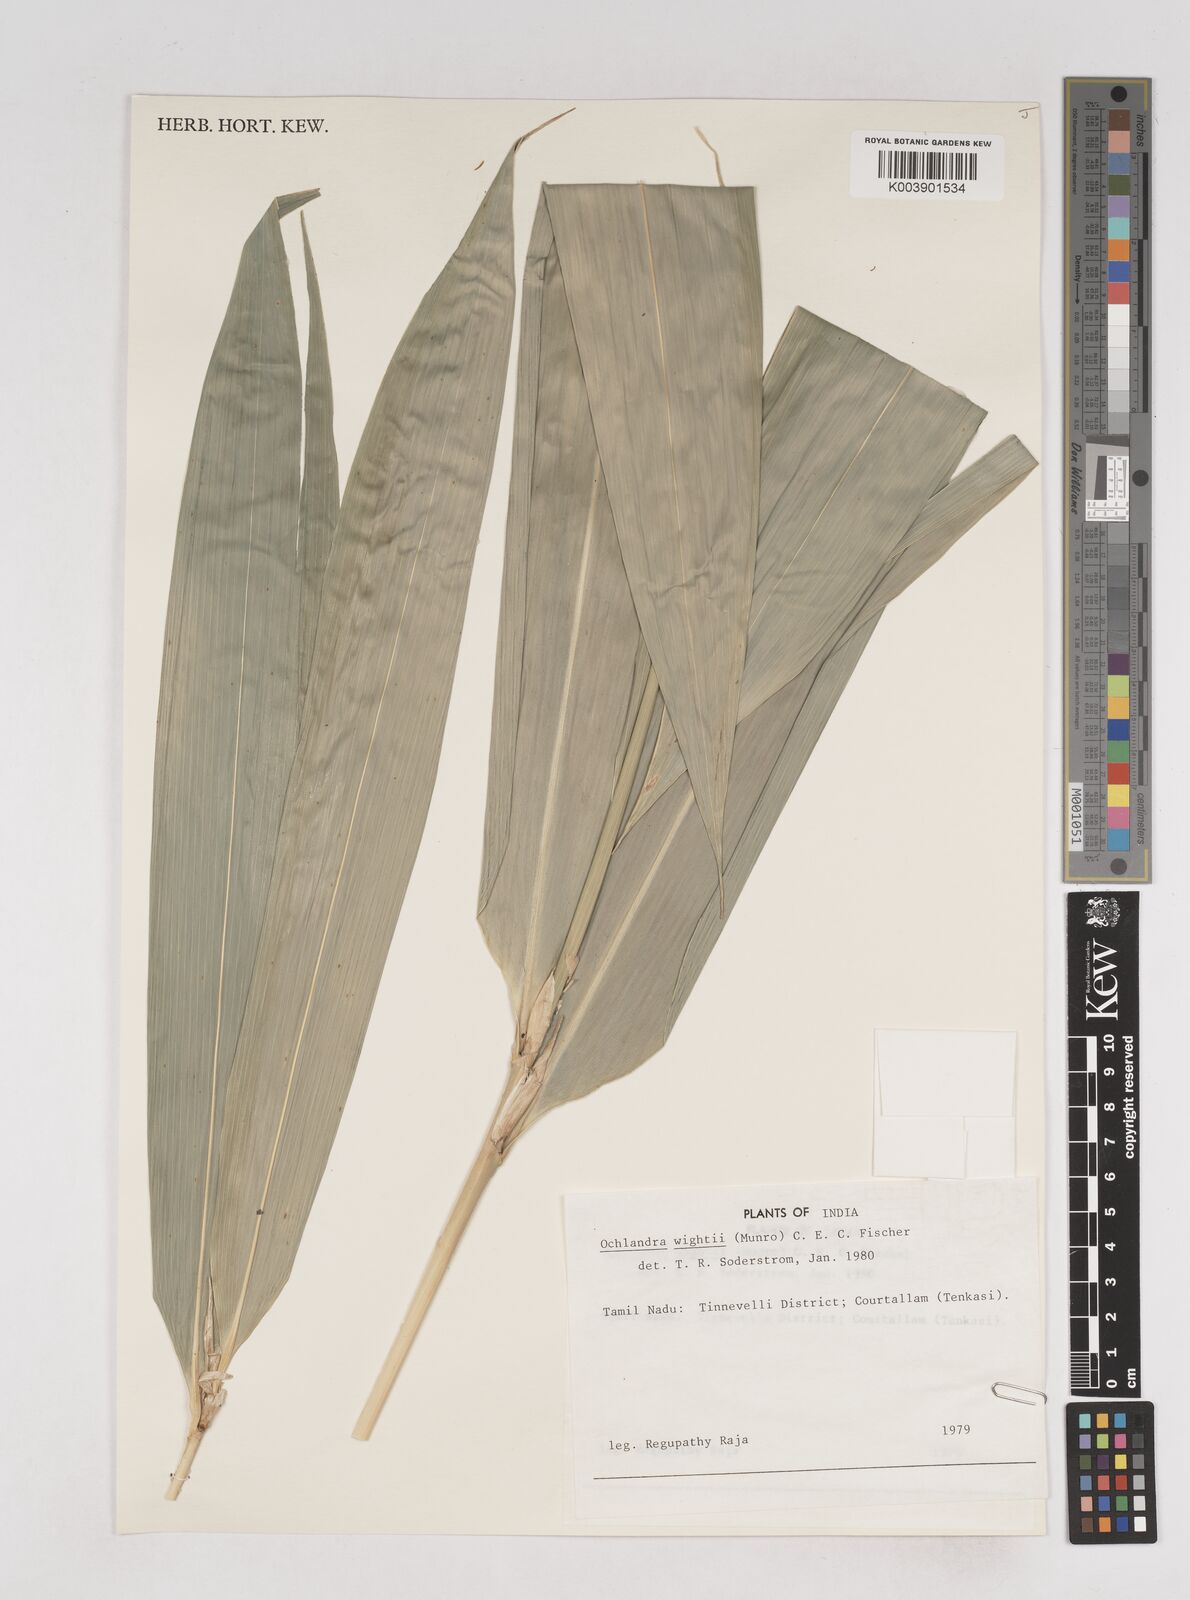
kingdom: Plantae
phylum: Tracheophyta
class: Liliopsida
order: Poales
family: Poaceae
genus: Ochlandra
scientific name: Ochlandra
